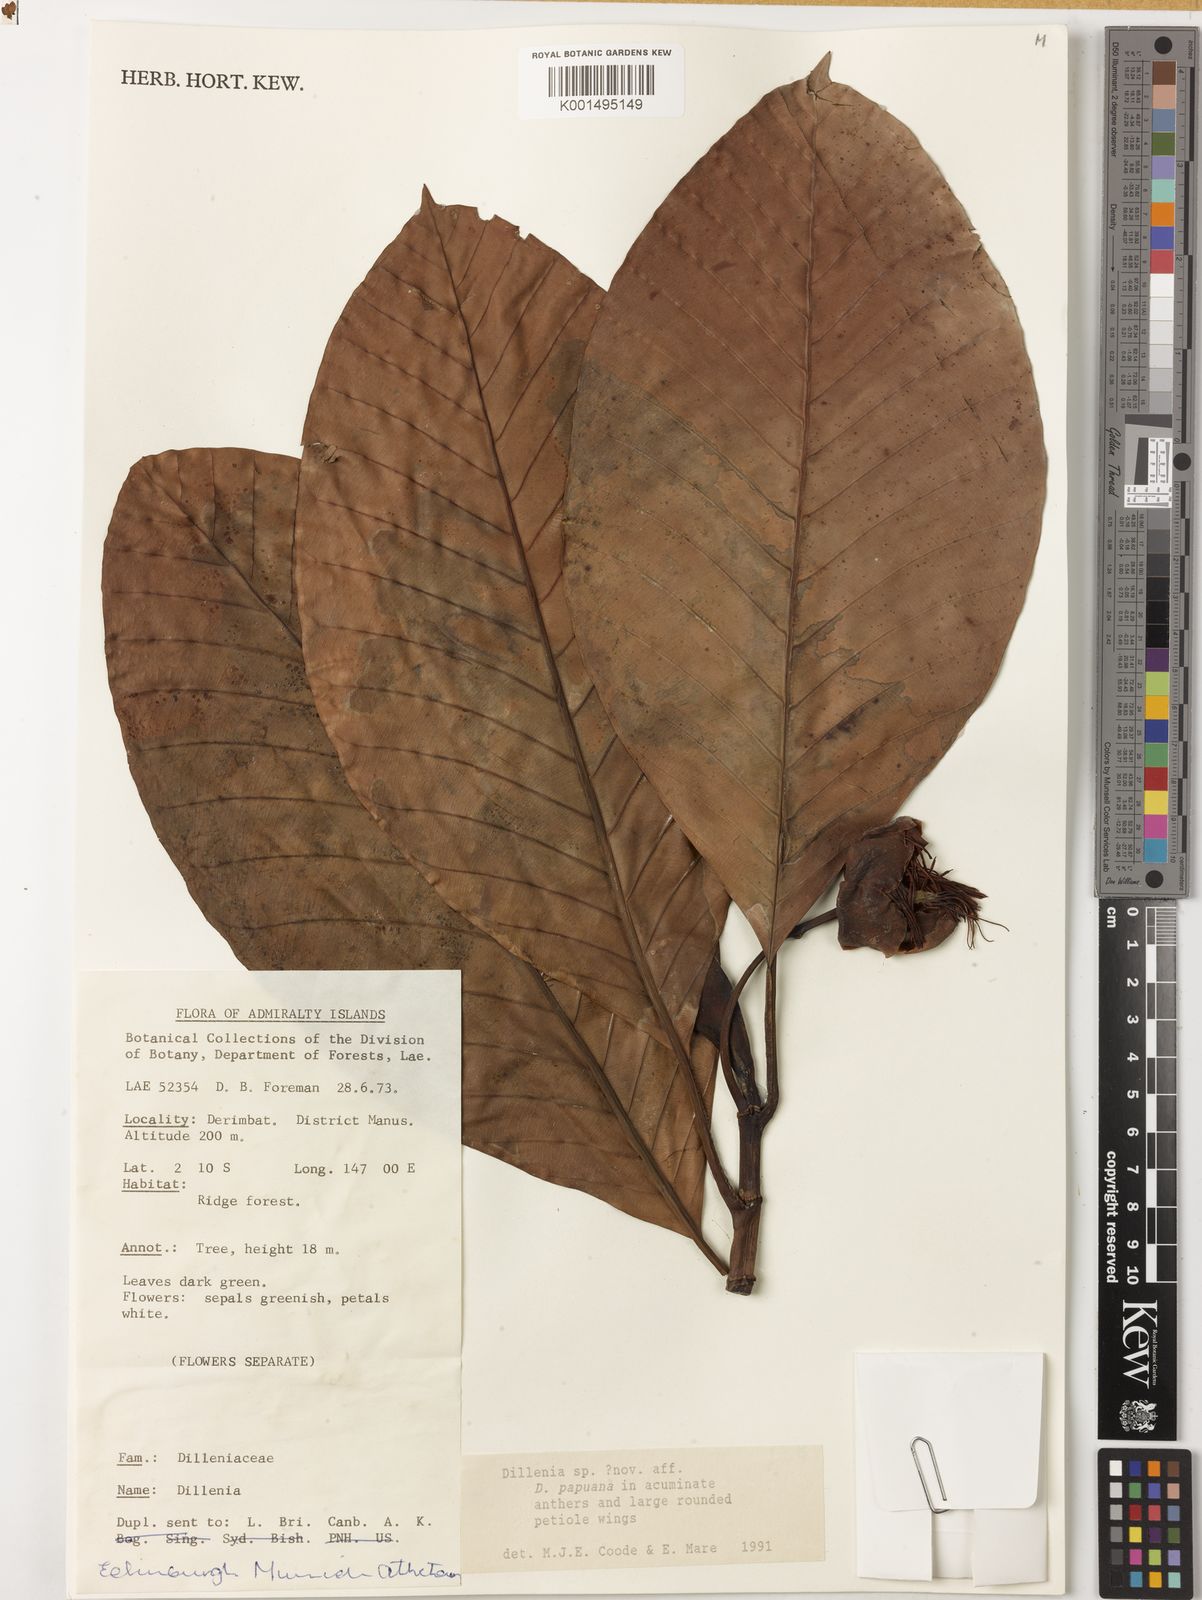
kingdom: Plantae
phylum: Tracheophyta
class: Magnoliopsida
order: Dilleniales
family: Dilleniaceae
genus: Dillenia
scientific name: Dillenia
